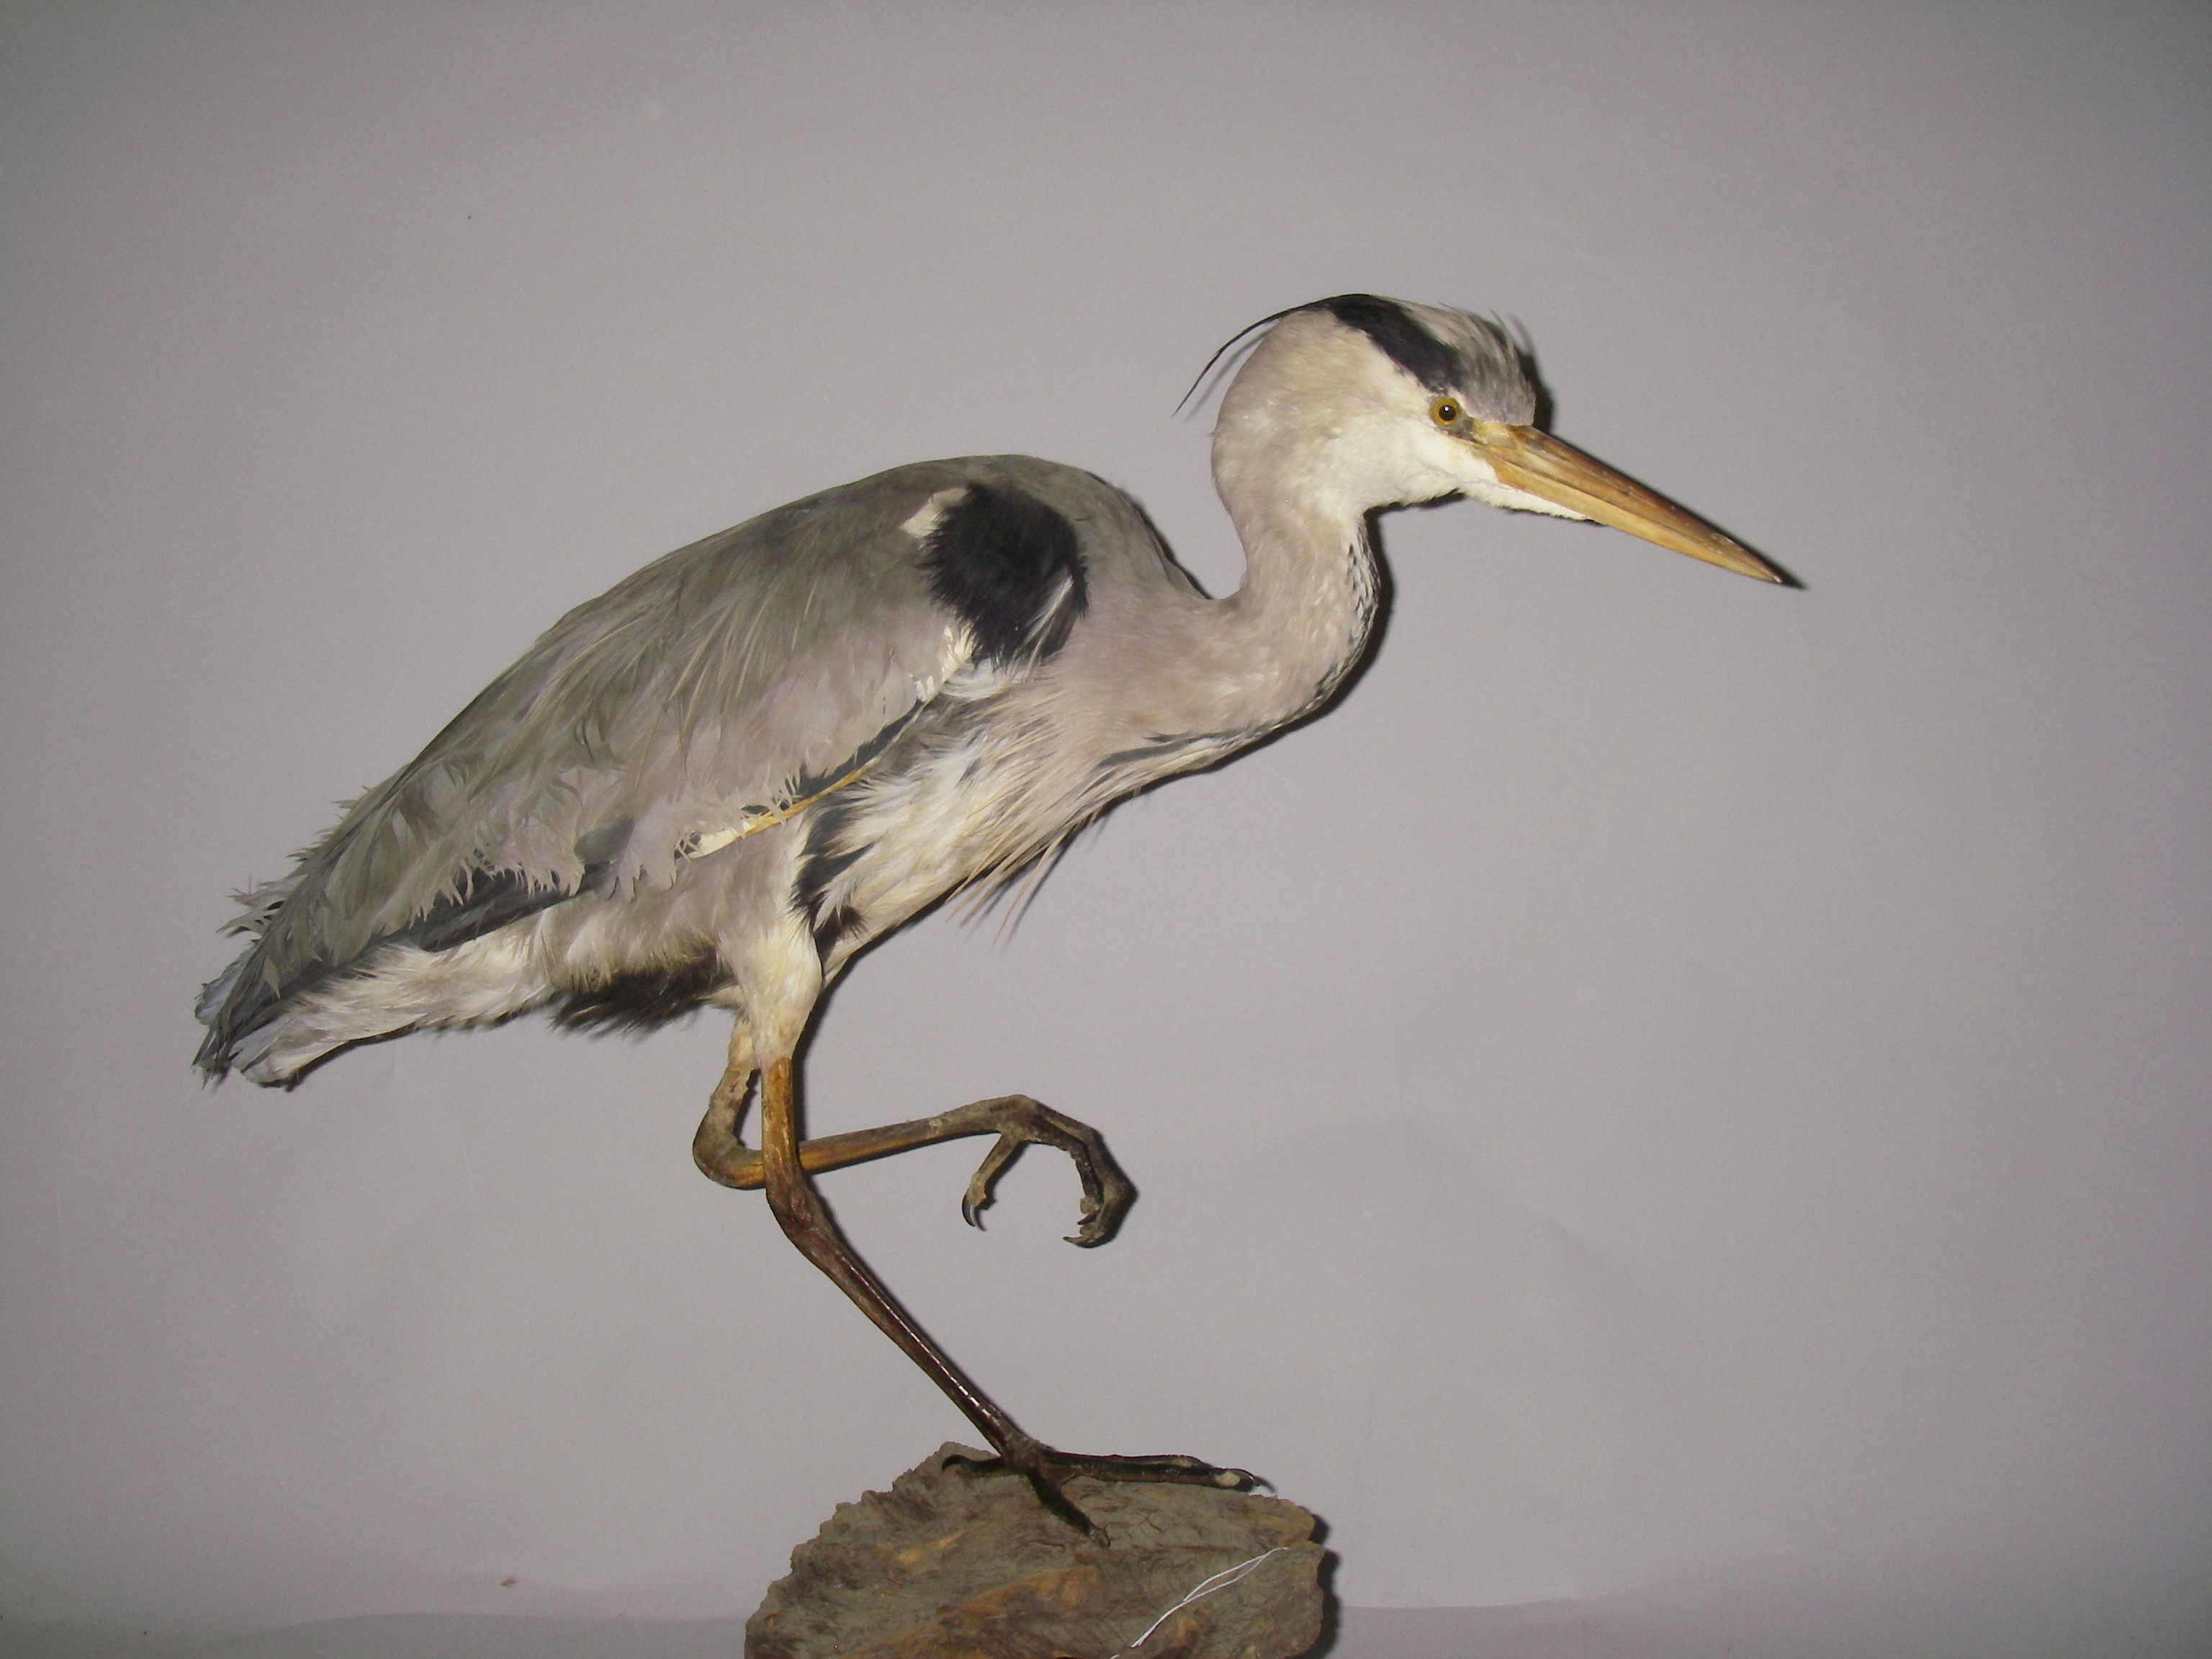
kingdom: Animalia
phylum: Chordata
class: Aves
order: Pelecaniformes
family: Ardeidae
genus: Ardea
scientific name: Ardea cinerea
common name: Grey heron
